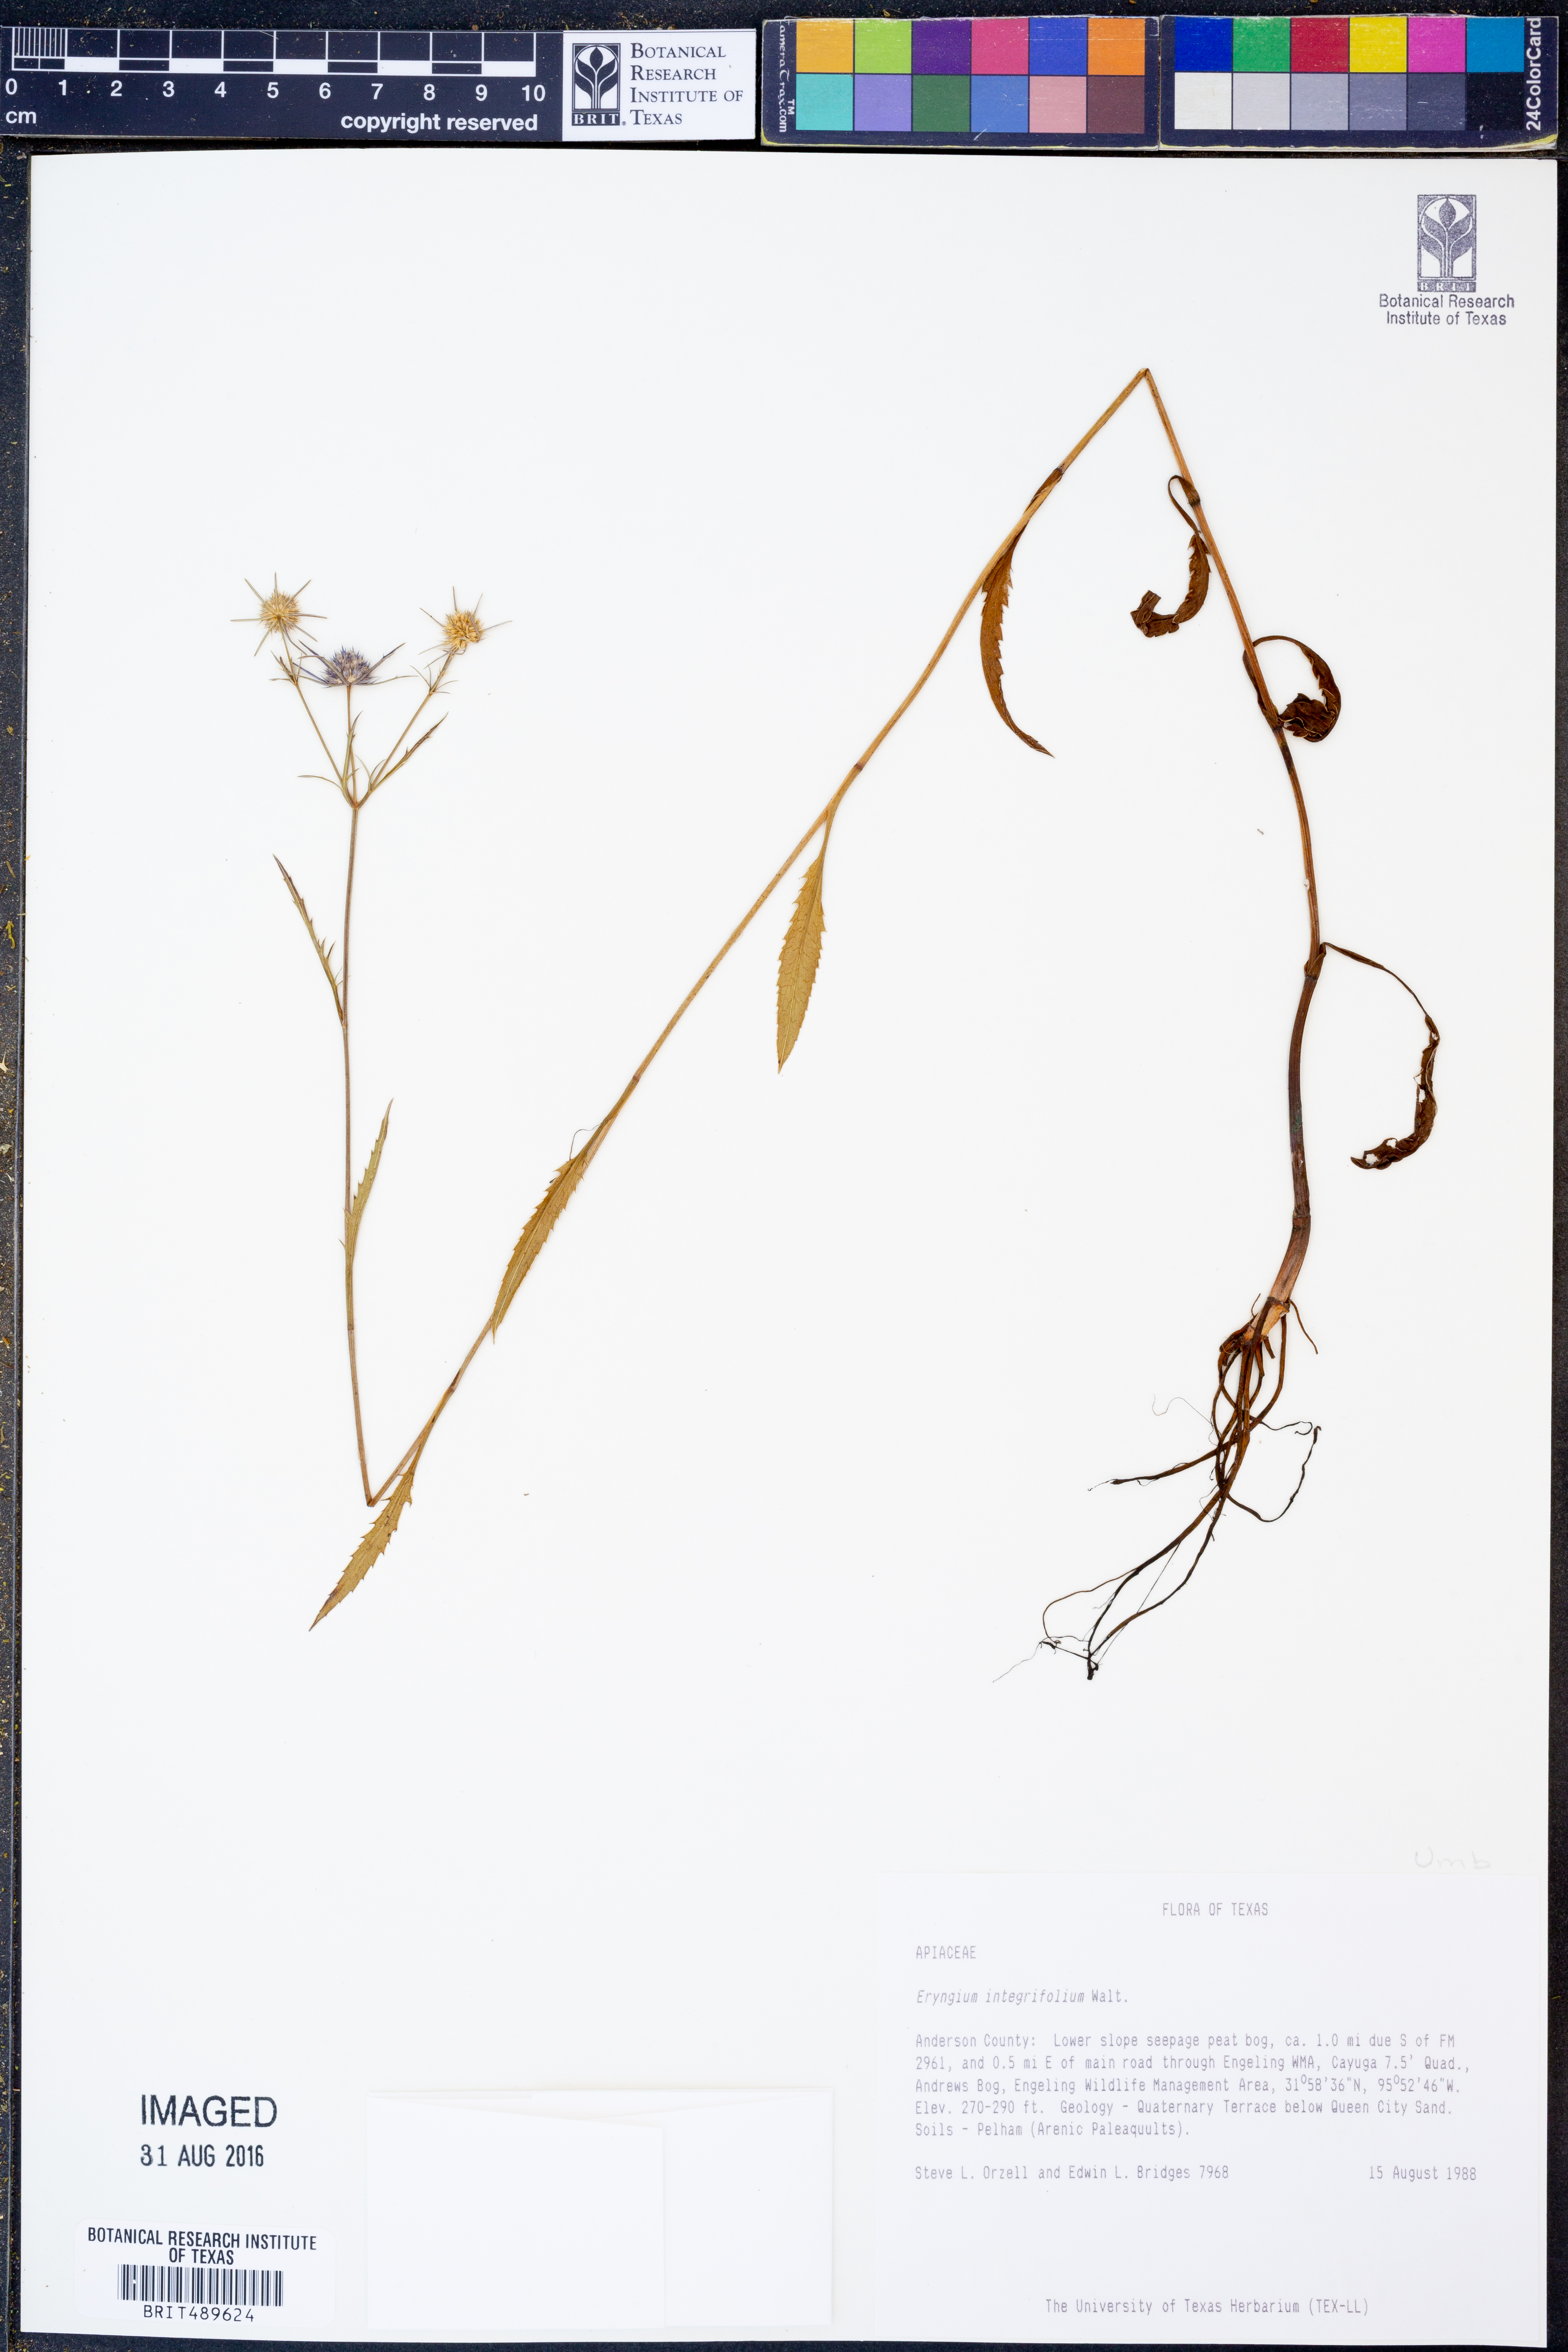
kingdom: Plantae
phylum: Tracheophyta
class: Magnoliopsida
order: Apiales
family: Apiaceae
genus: Eryngium
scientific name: Eryngium integrifolium
